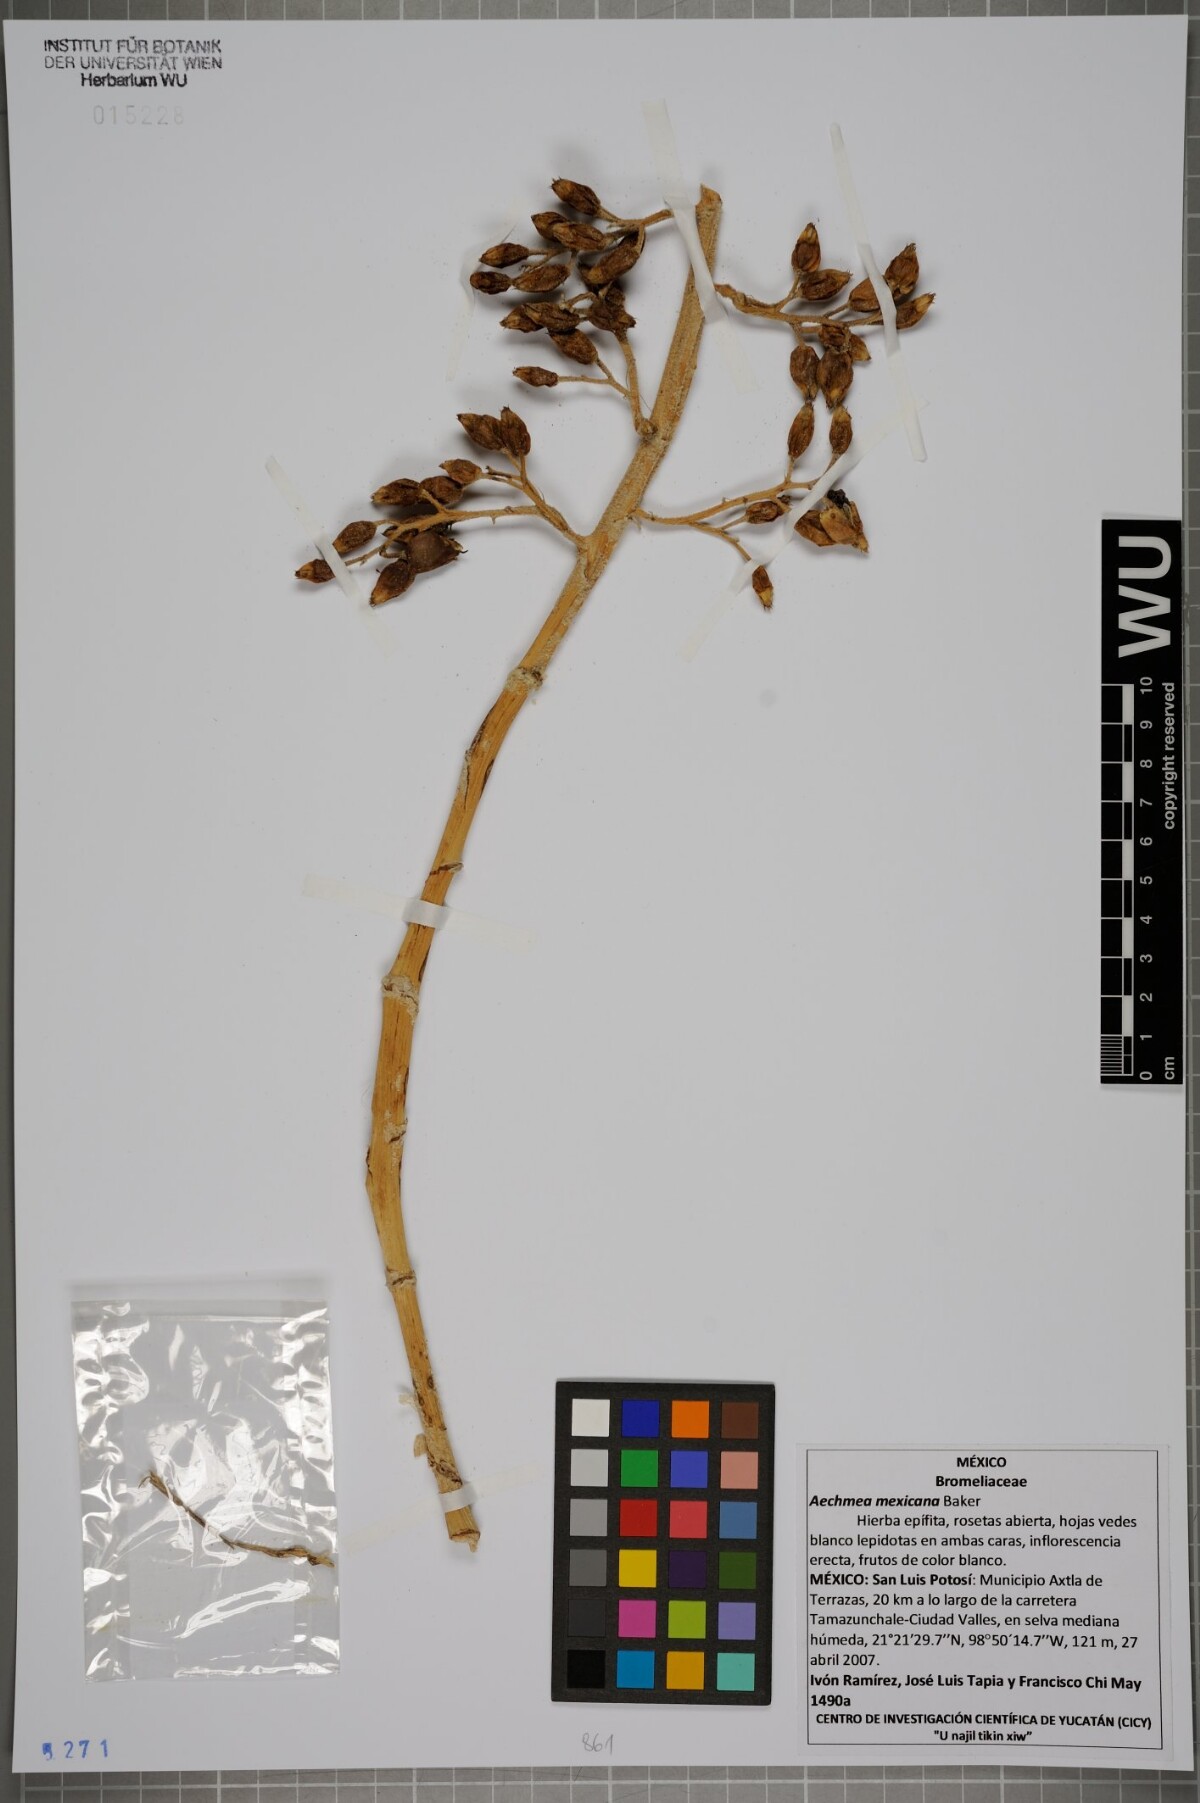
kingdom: Plantae
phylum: Tracheophyta
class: Liliopsida
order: Poales
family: Bromeliaceae
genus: Aechmea
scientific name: Aechmea mexicana
